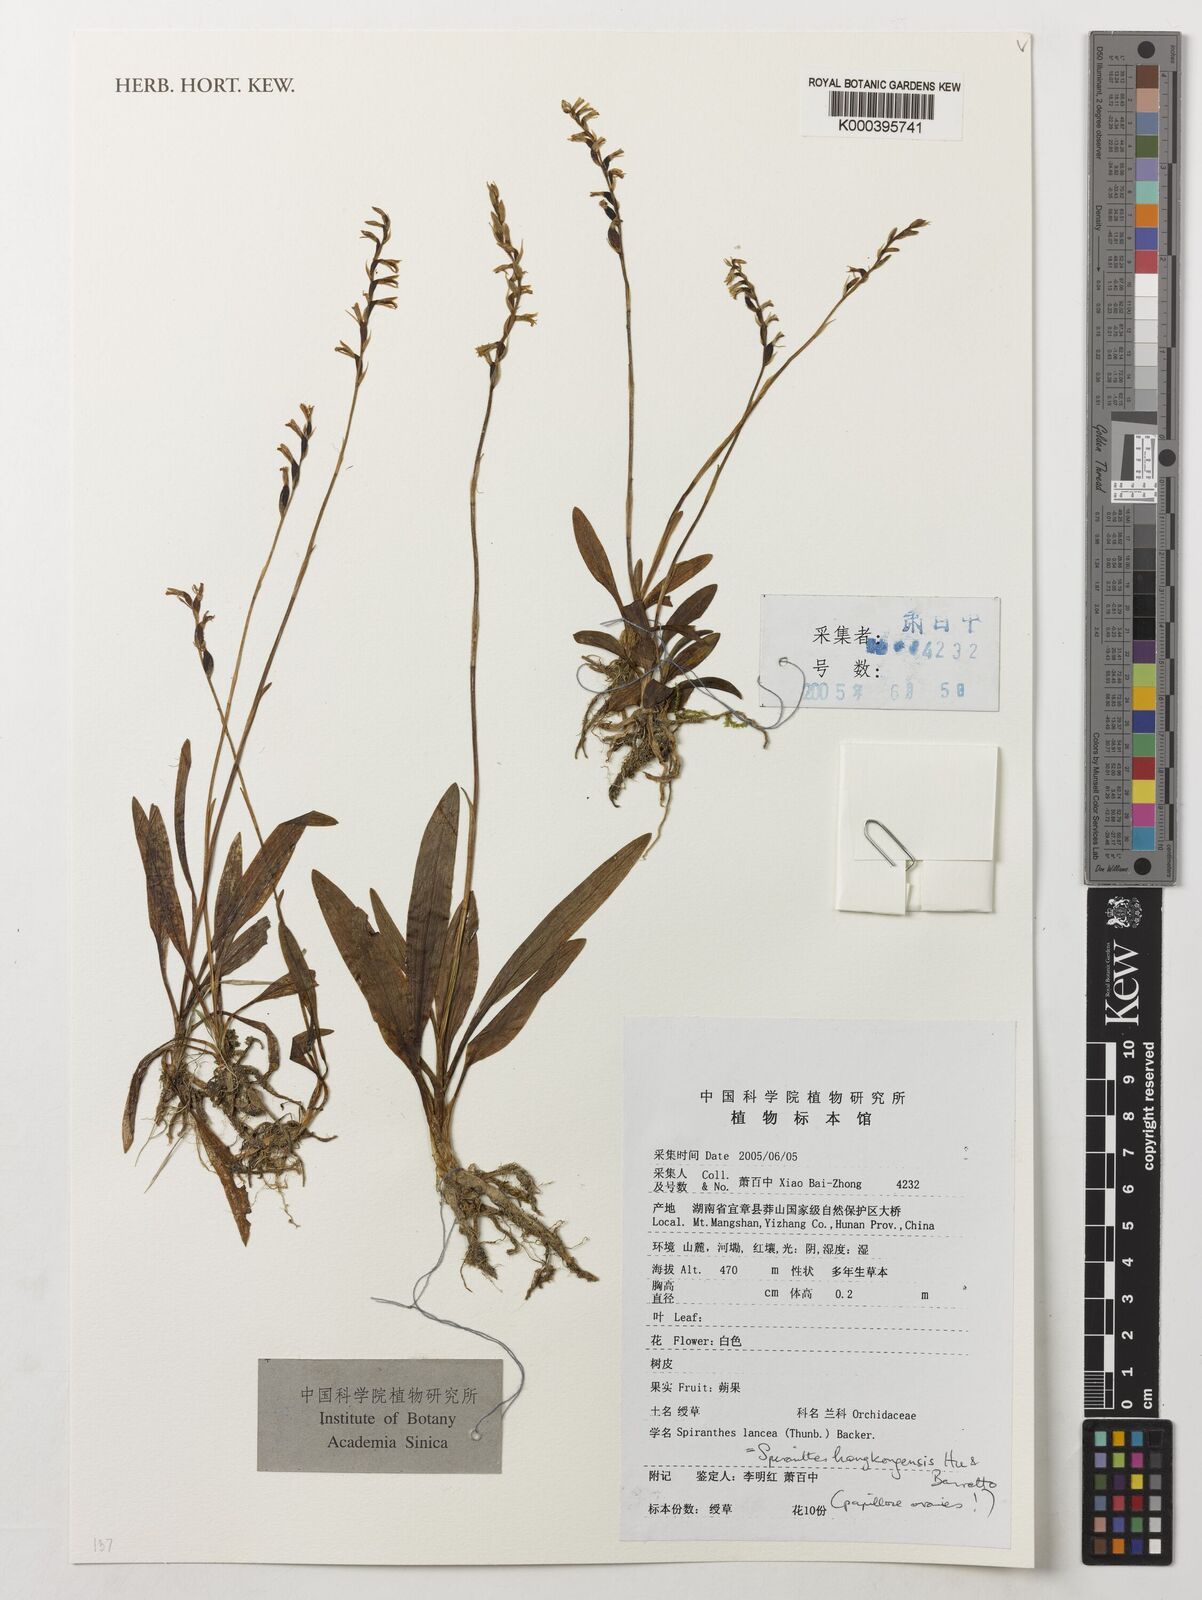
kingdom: Plantae
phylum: Tracheophyta
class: Liliopsida
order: Asparagales
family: Orchidaceae
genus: Spiranthes
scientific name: Spiranthes hongkongensis
